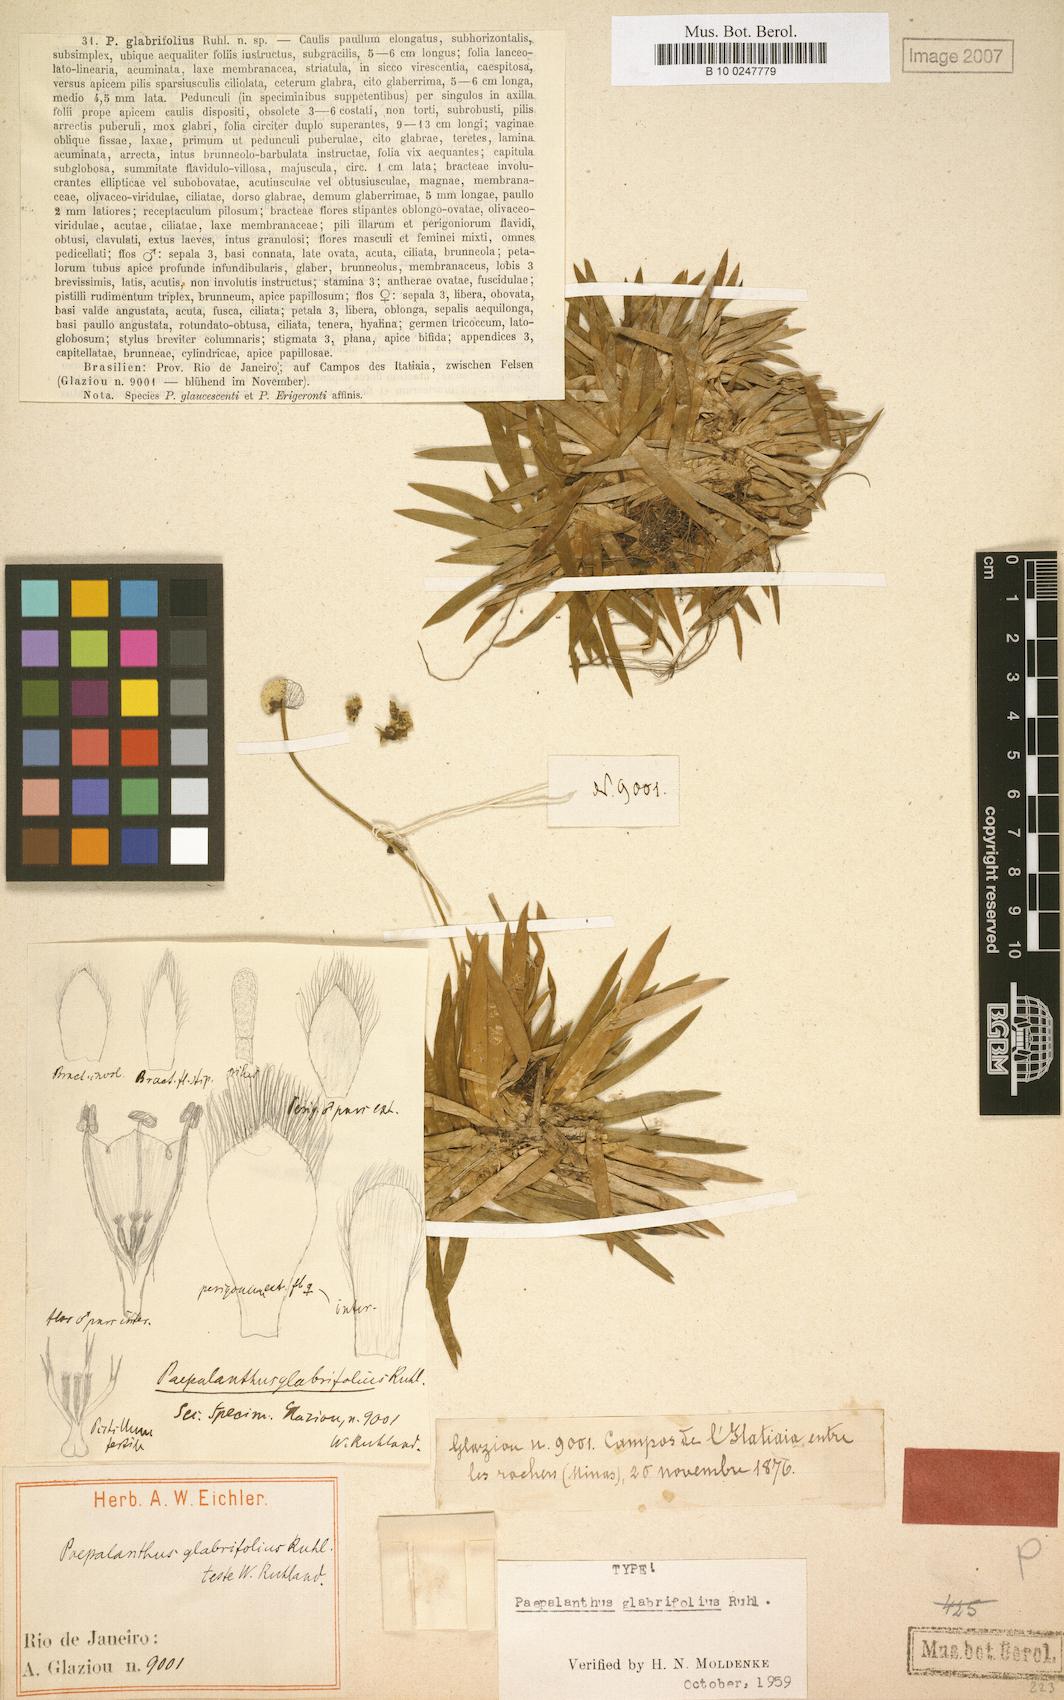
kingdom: Plantae
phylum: Tracheophyta
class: Liliopsida
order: Poales
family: Eriocaulaceae
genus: Paepalanthus
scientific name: Paepalanthus glabrifolius
